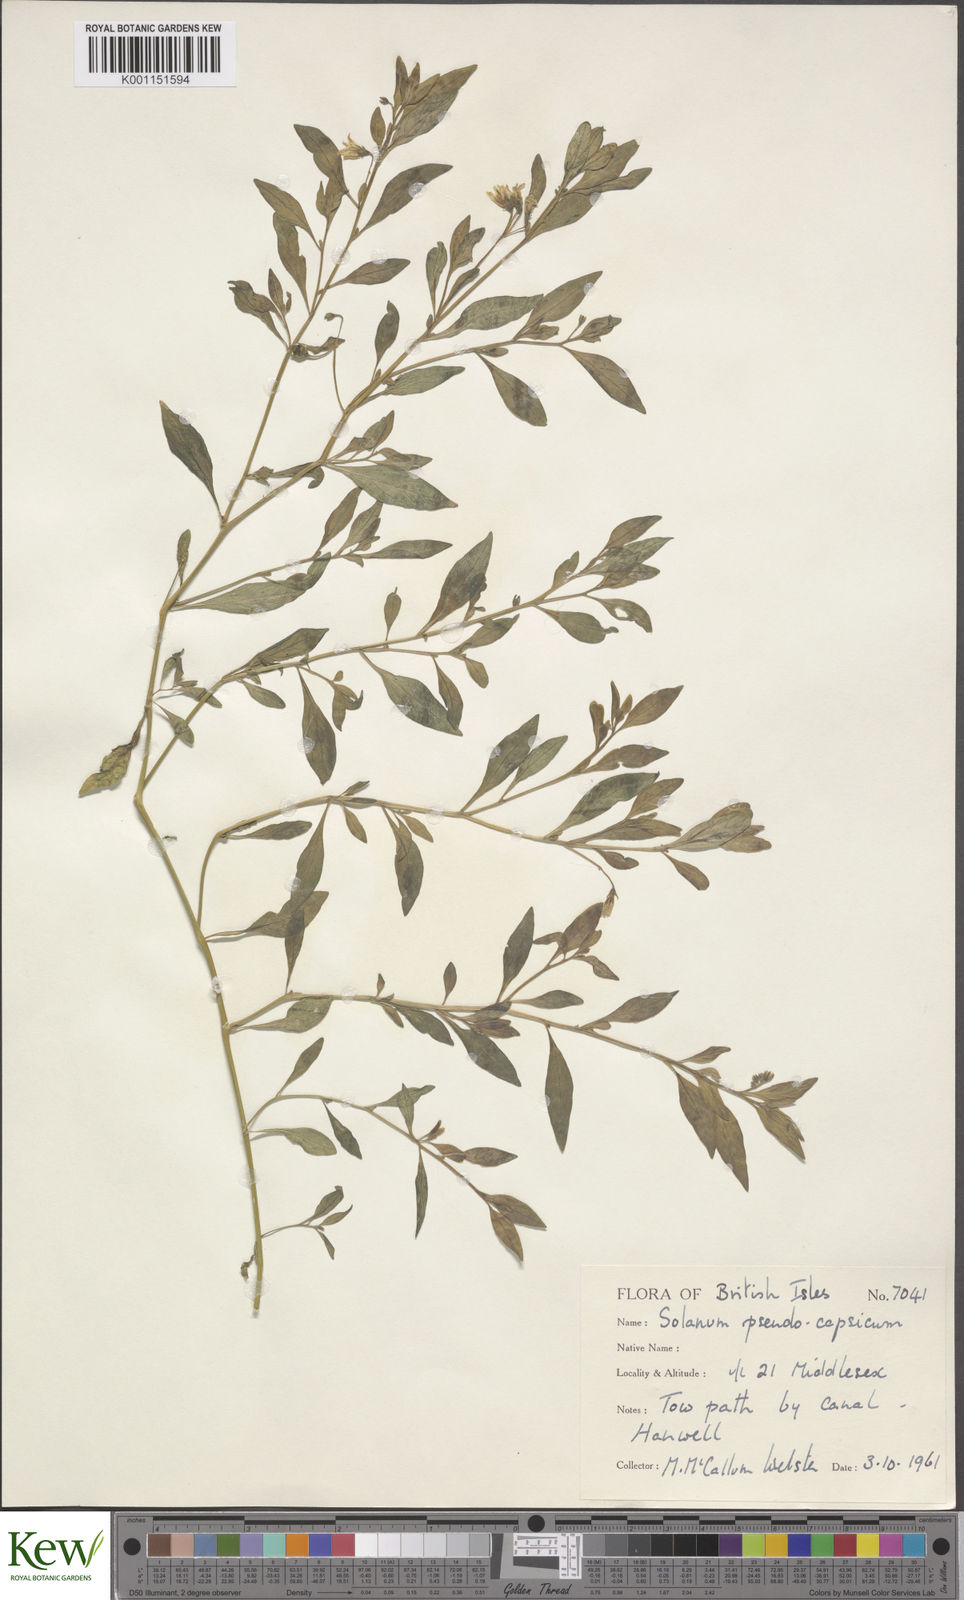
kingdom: Plantae
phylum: Tracheophyta
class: Magnoliopsida
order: Solanales
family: Solanaceae
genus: Solanum
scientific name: Solanum pygmaeum
